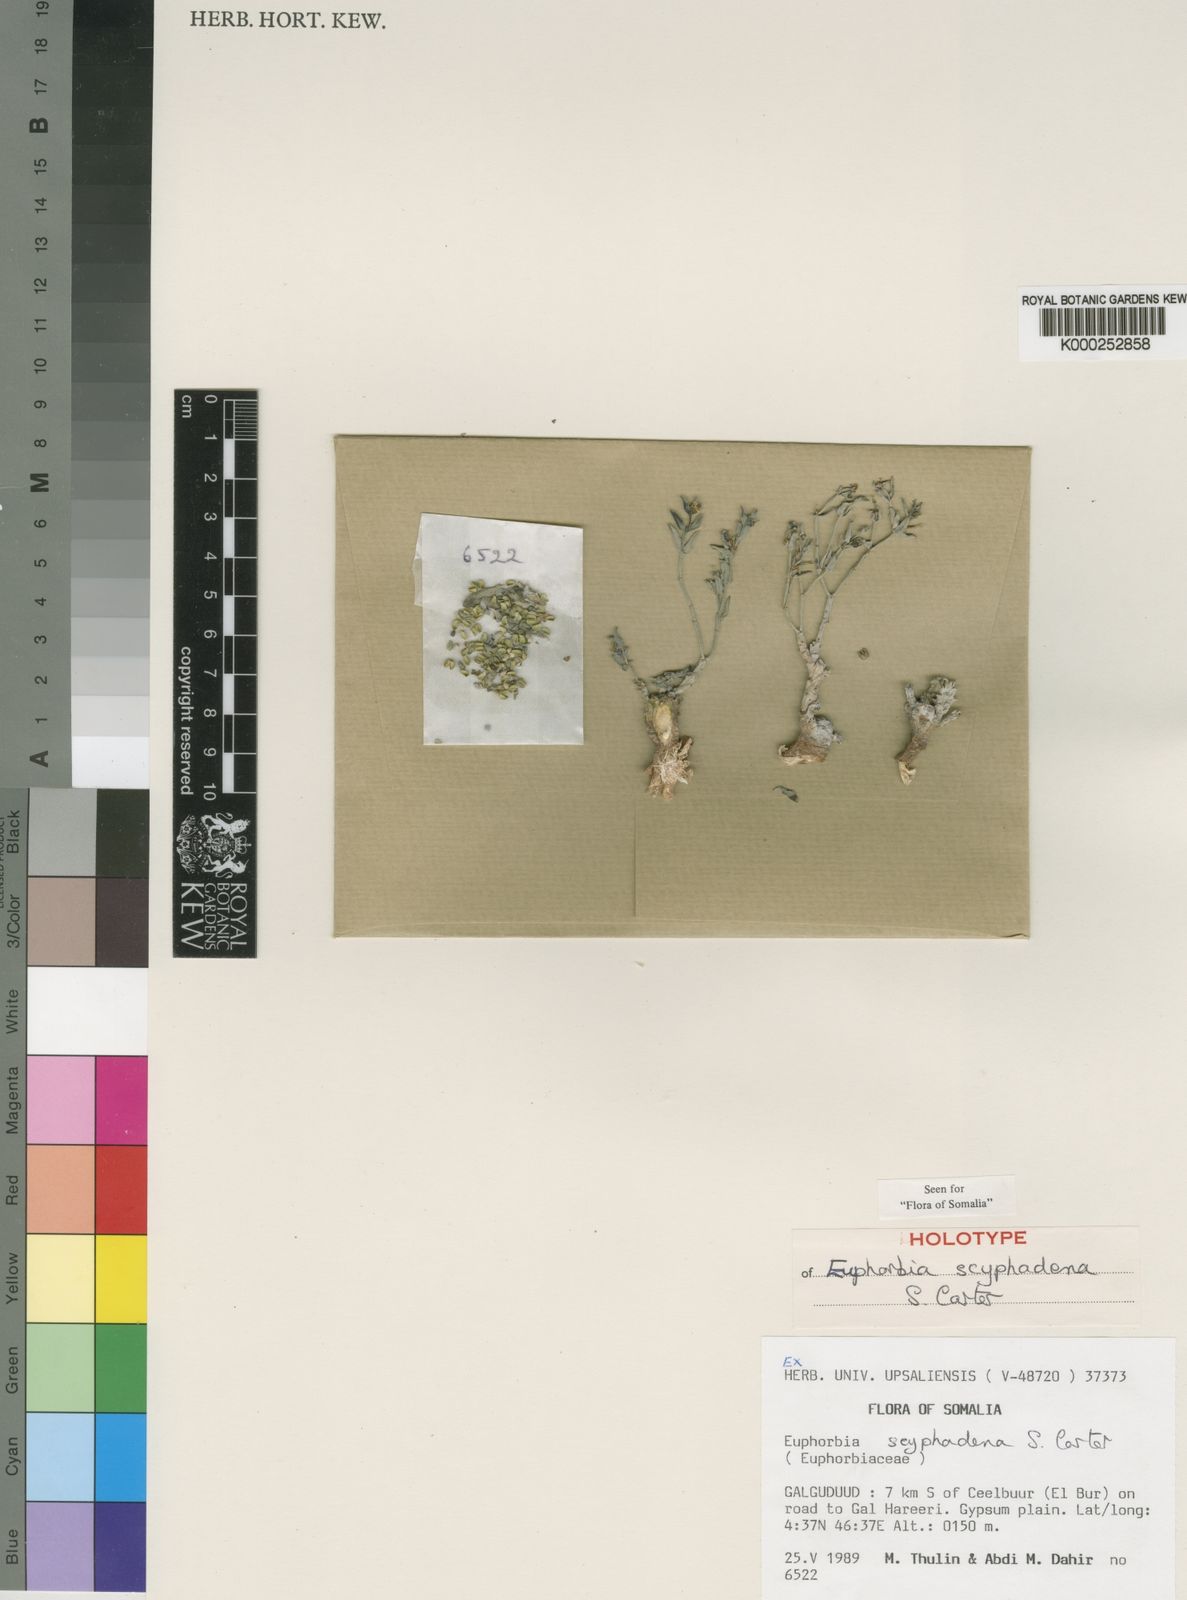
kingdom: Plantae
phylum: Tracheophyta
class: Magnoliopsida
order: Malpighiales
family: Euphorbiaceae
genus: Euphorbia
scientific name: Euphorbia scyphadena
